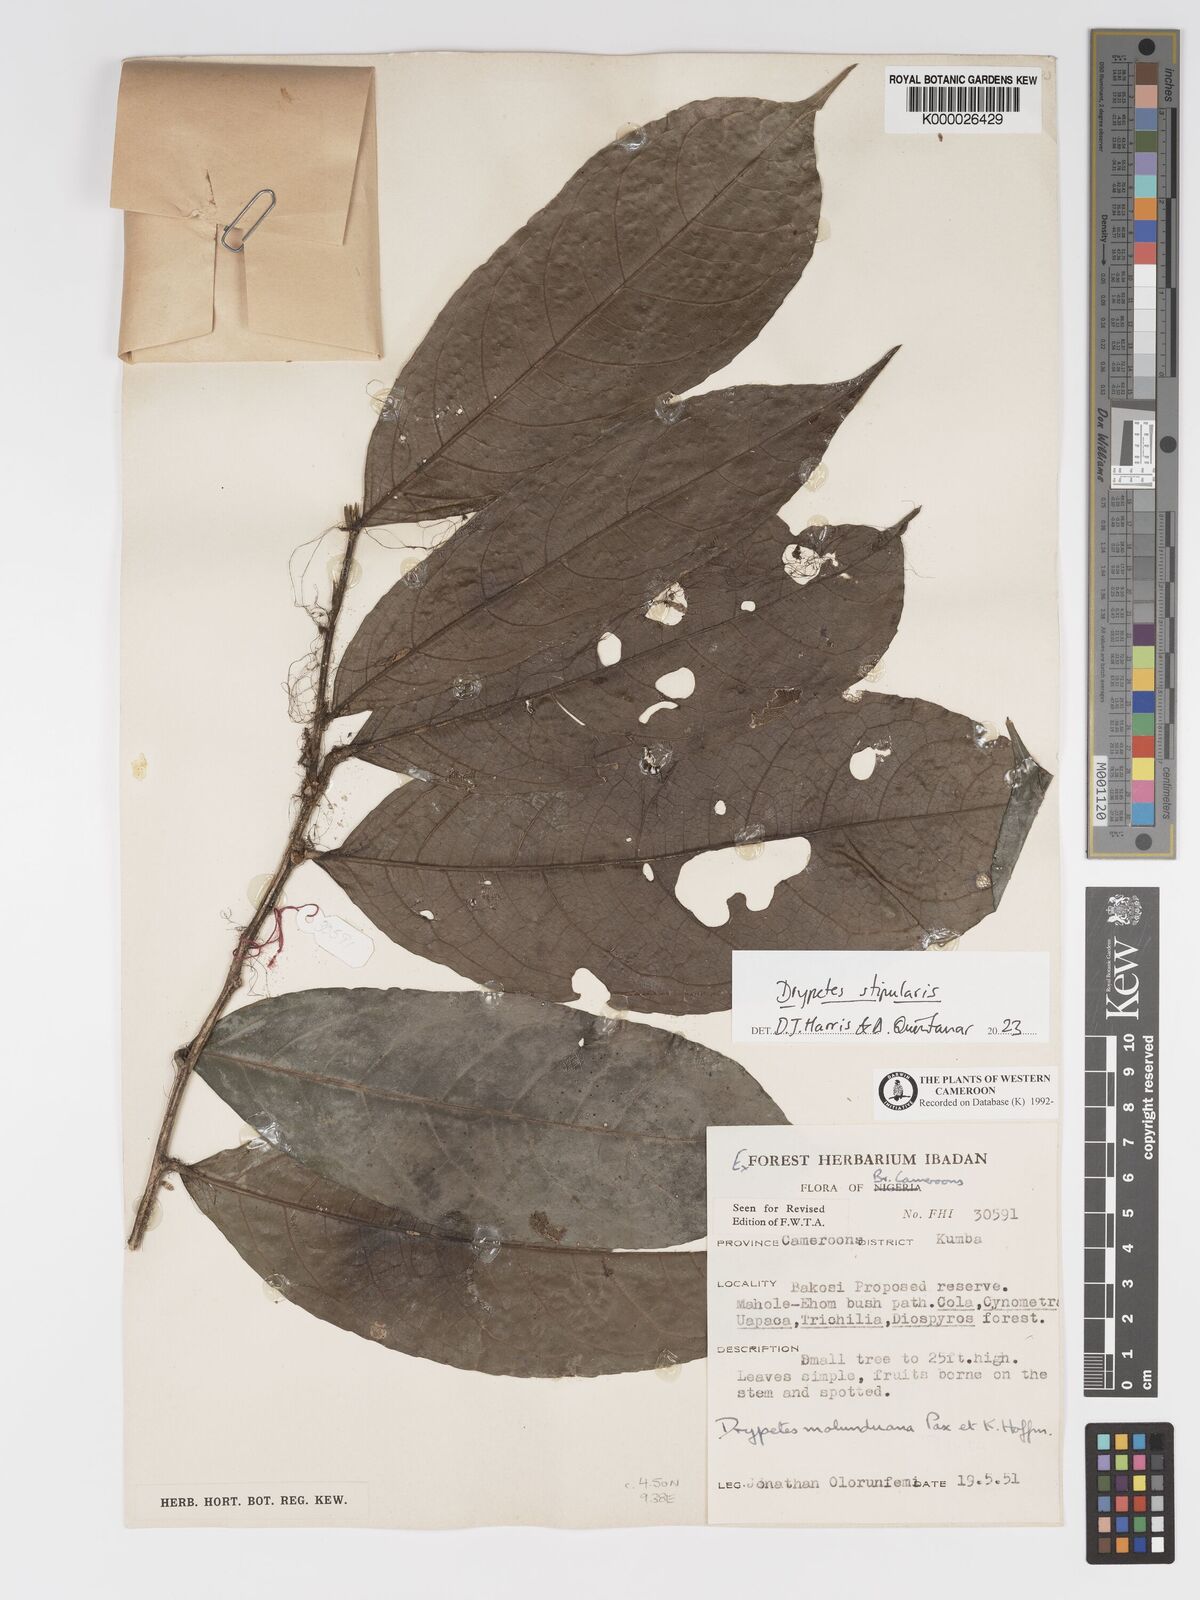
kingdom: Plantae
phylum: Tracheophyta
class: Magnoliopsida
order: Malpighiales
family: Putranjivaceae
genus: Drypetes
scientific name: Drypetes molunduana
